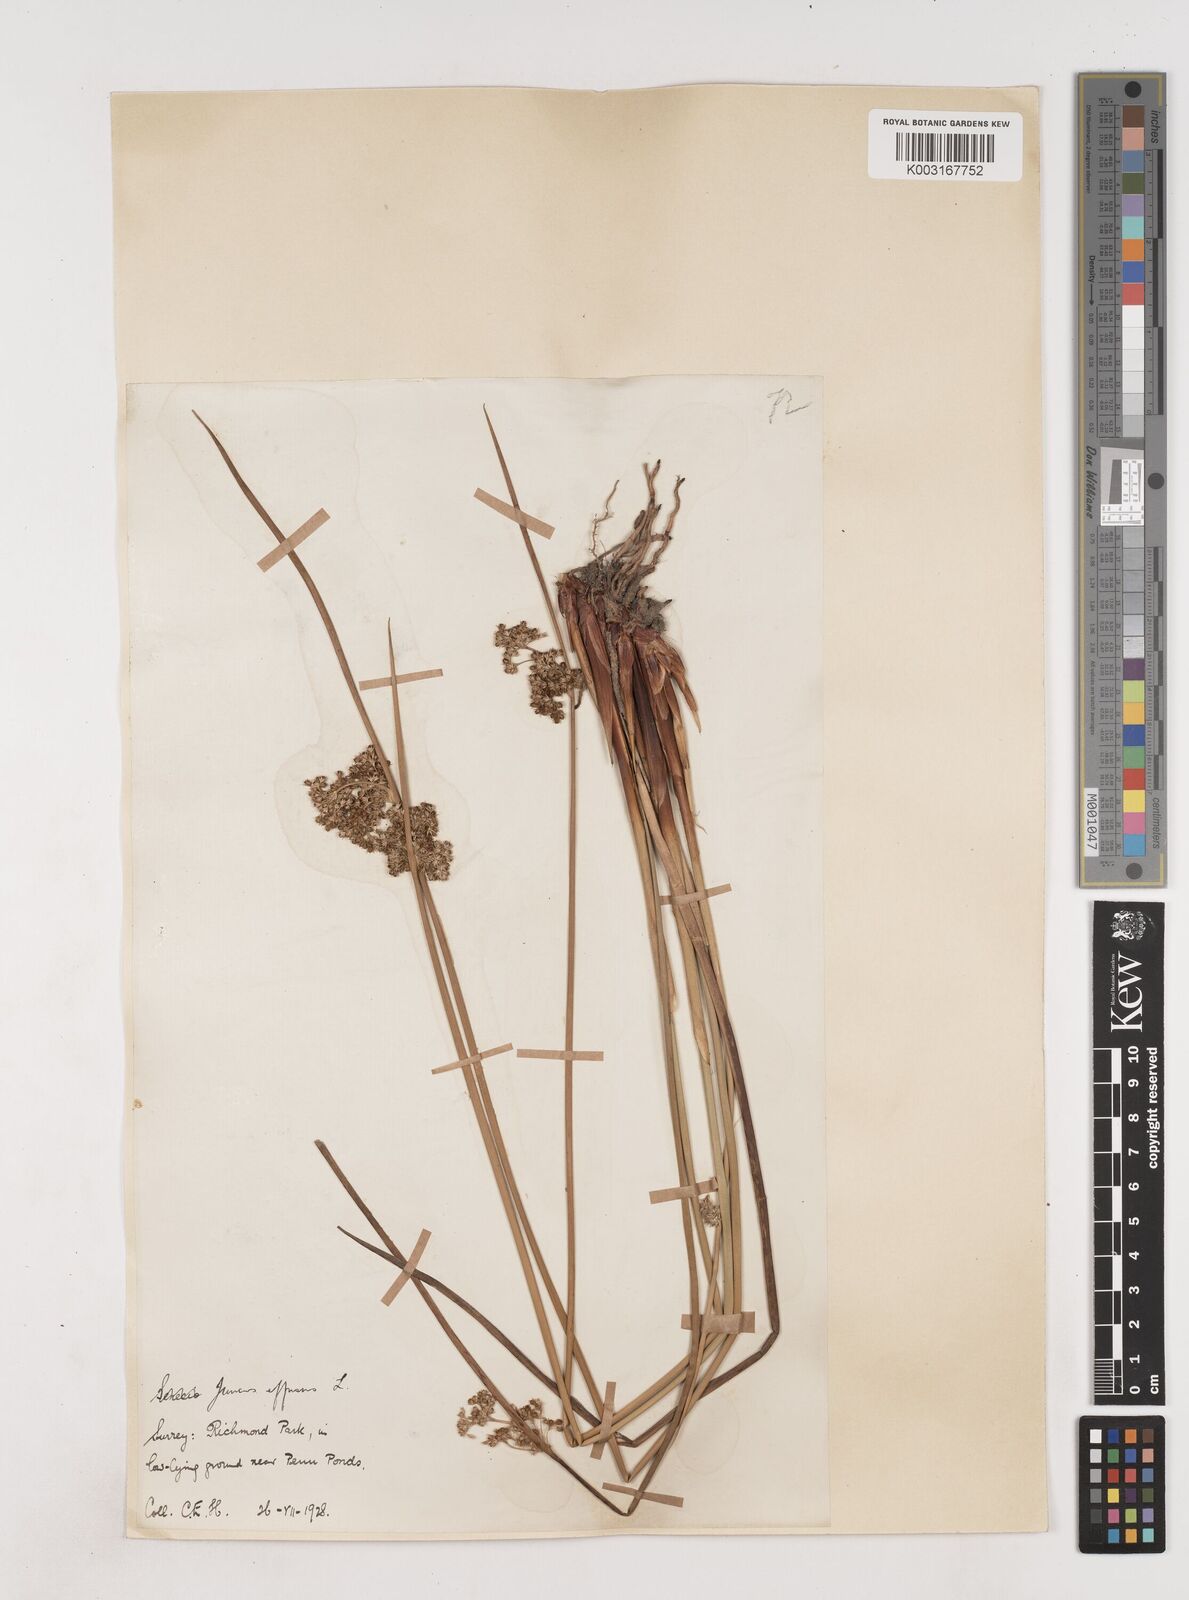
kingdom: Plantae
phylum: Tracheophyta
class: Liliopsida
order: Poales
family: Juncaceae
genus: Juncus
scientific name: Juncus effusus
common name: Soft rush
